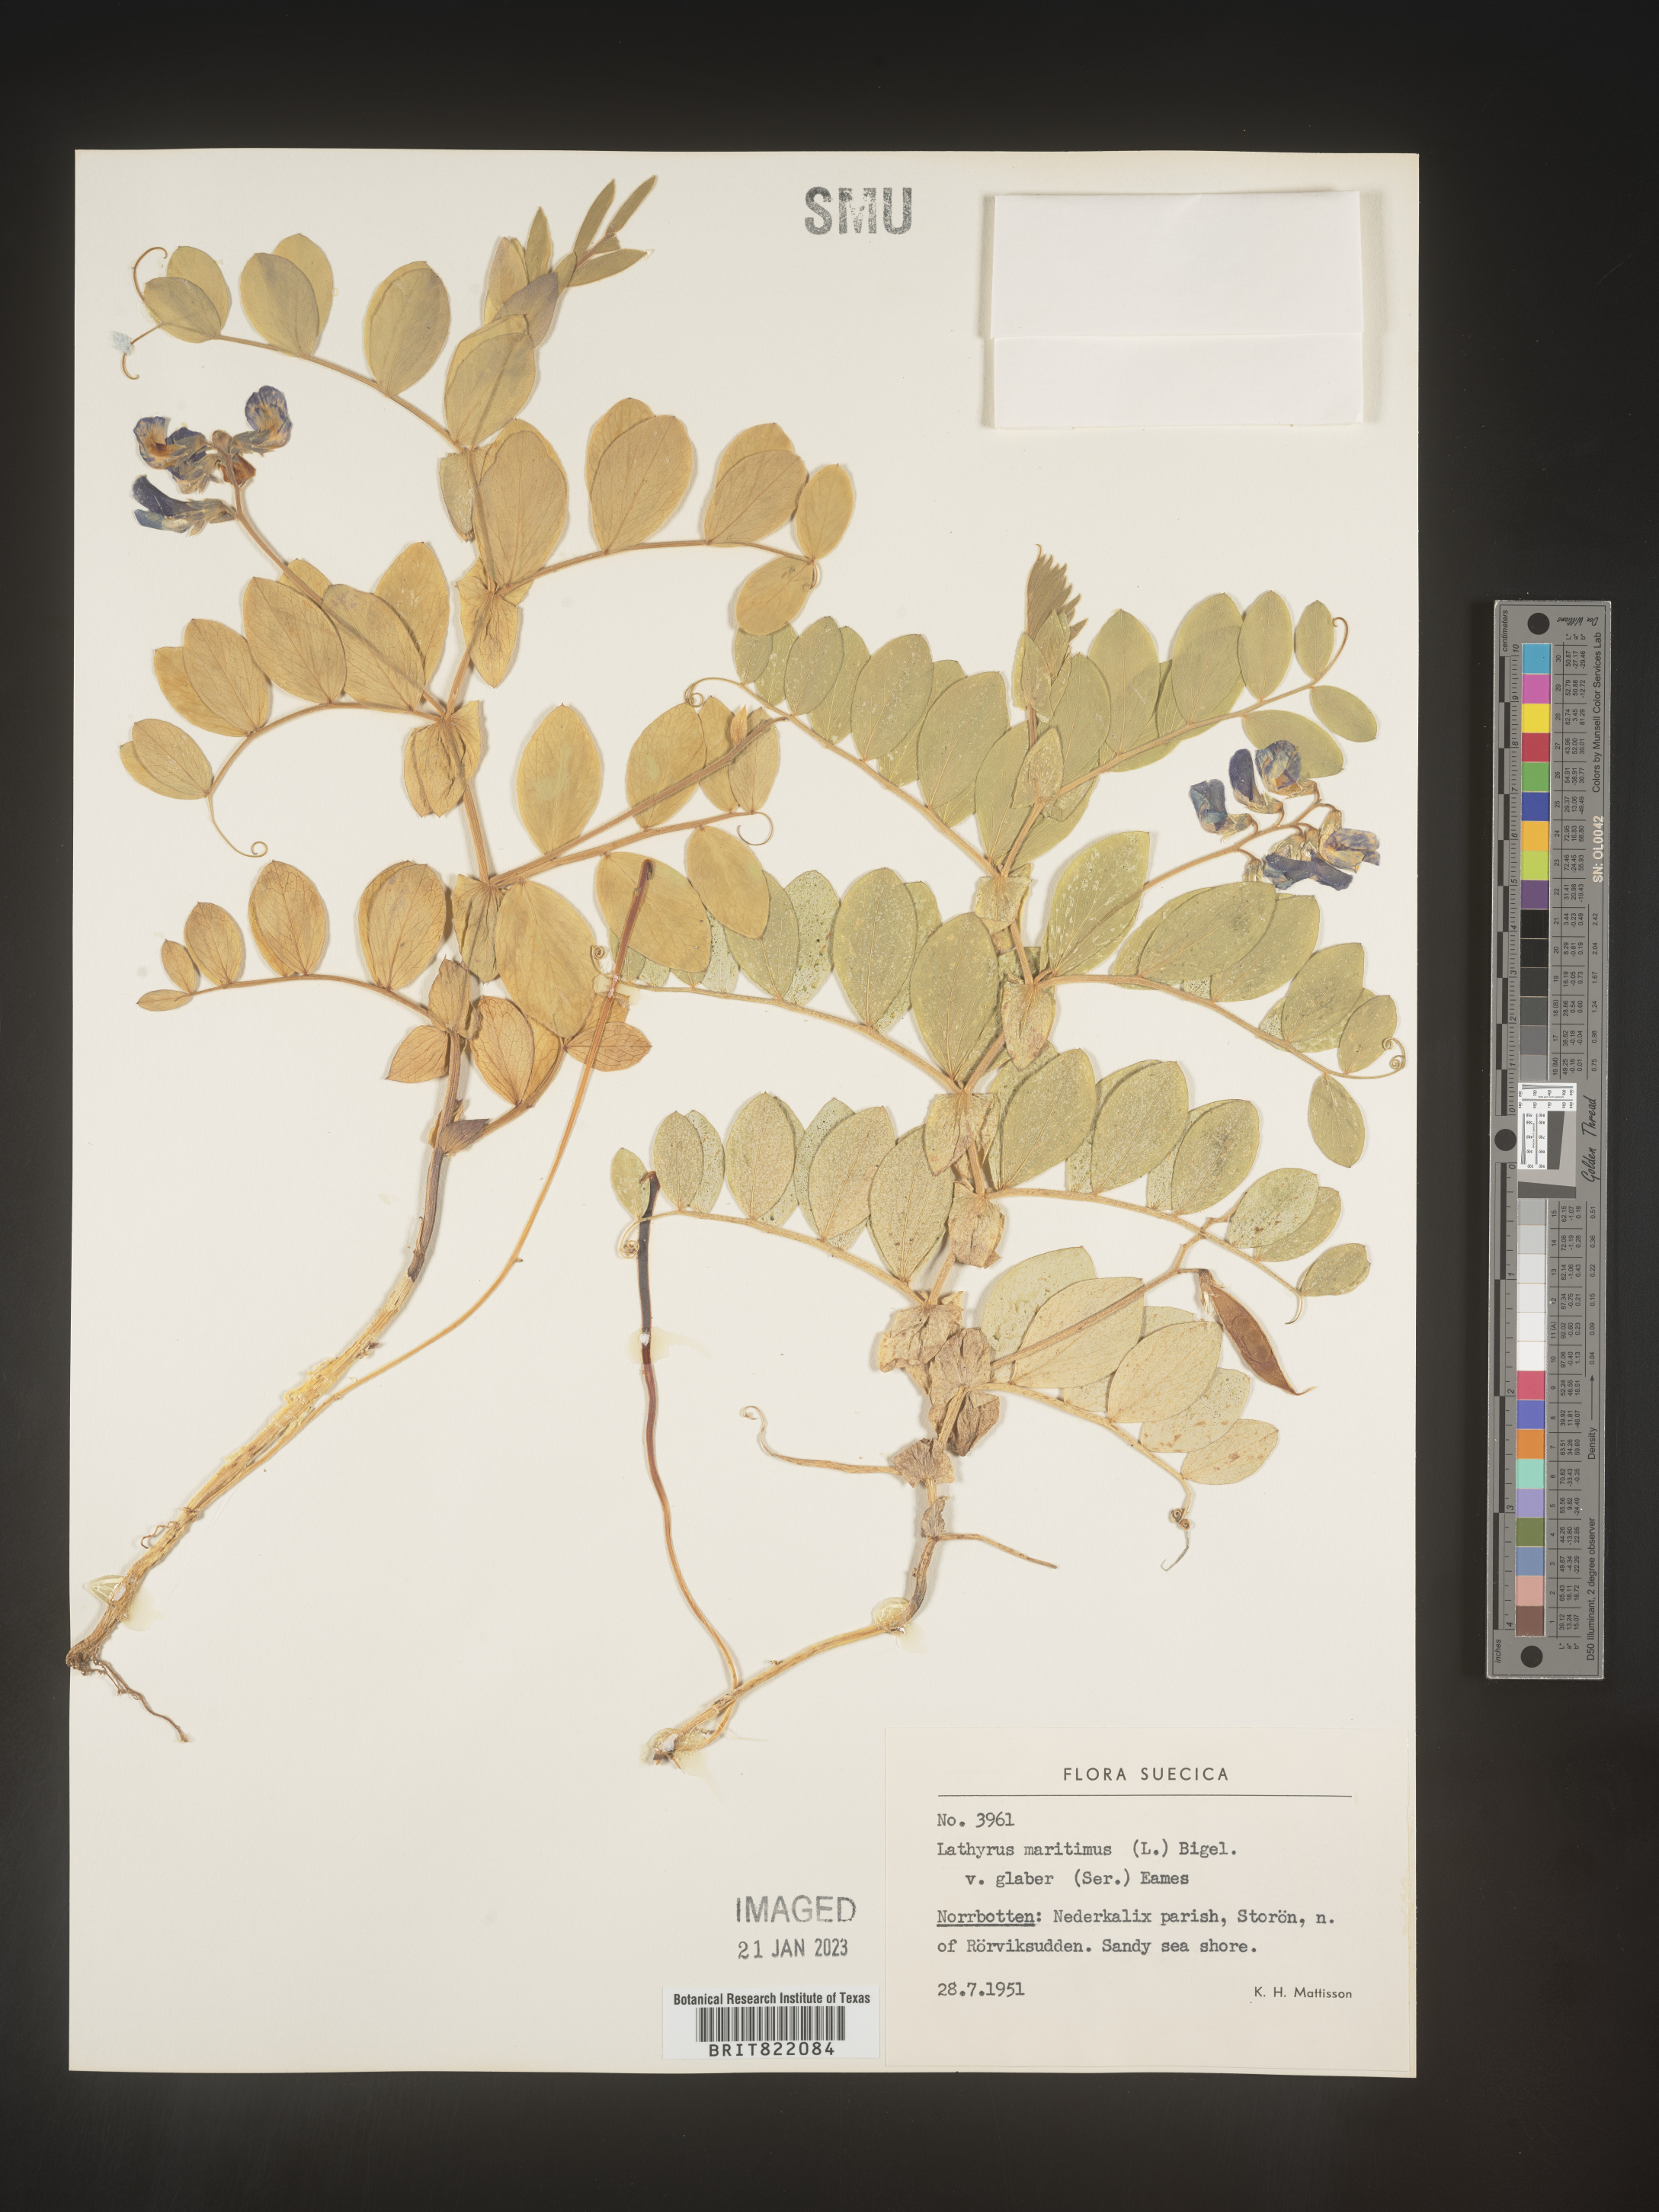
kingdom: Plantae
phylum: Tracheophyta
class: Magnoliopsida
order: Fabales
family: Fabaceae
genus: Lathyrus
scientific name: Lathyrus
